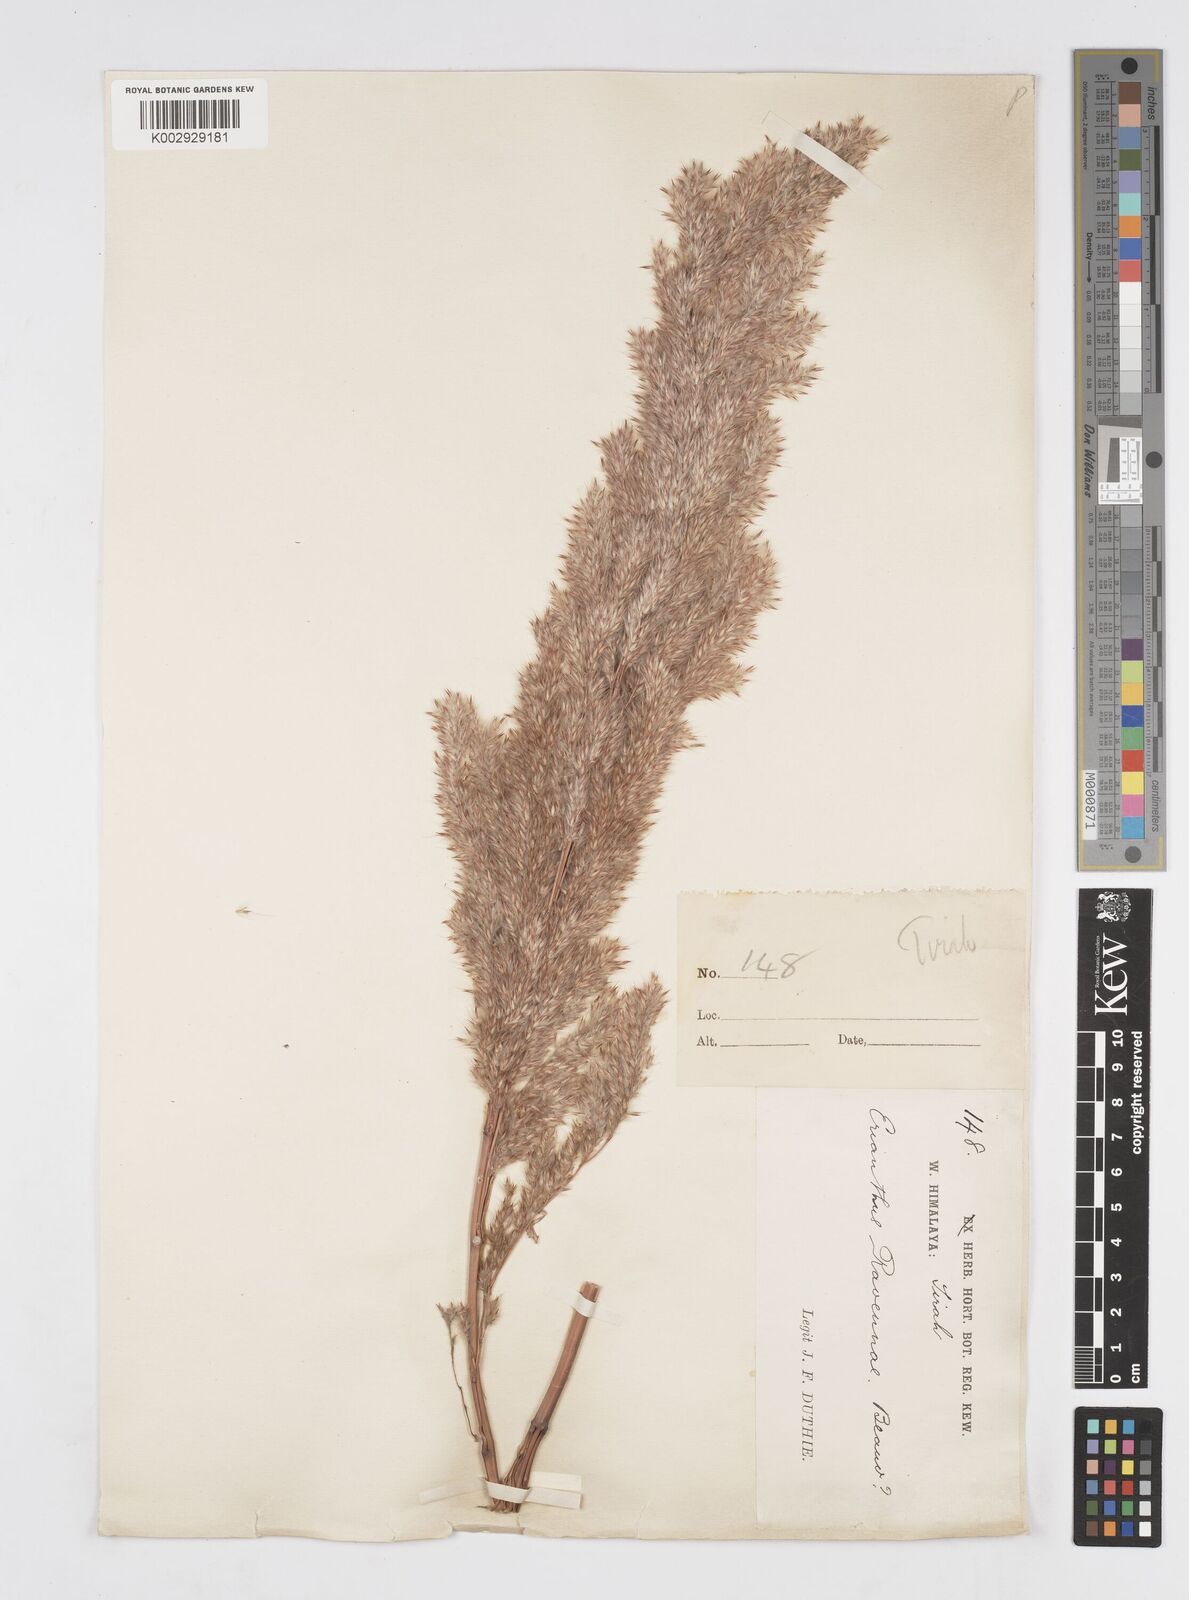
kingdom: Plantae
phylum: Tracheophyta
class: Liliopsida
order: Poales
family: Poaceae
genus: Tripidium
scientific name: Tripidium ravennae
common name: Ravenna grass
